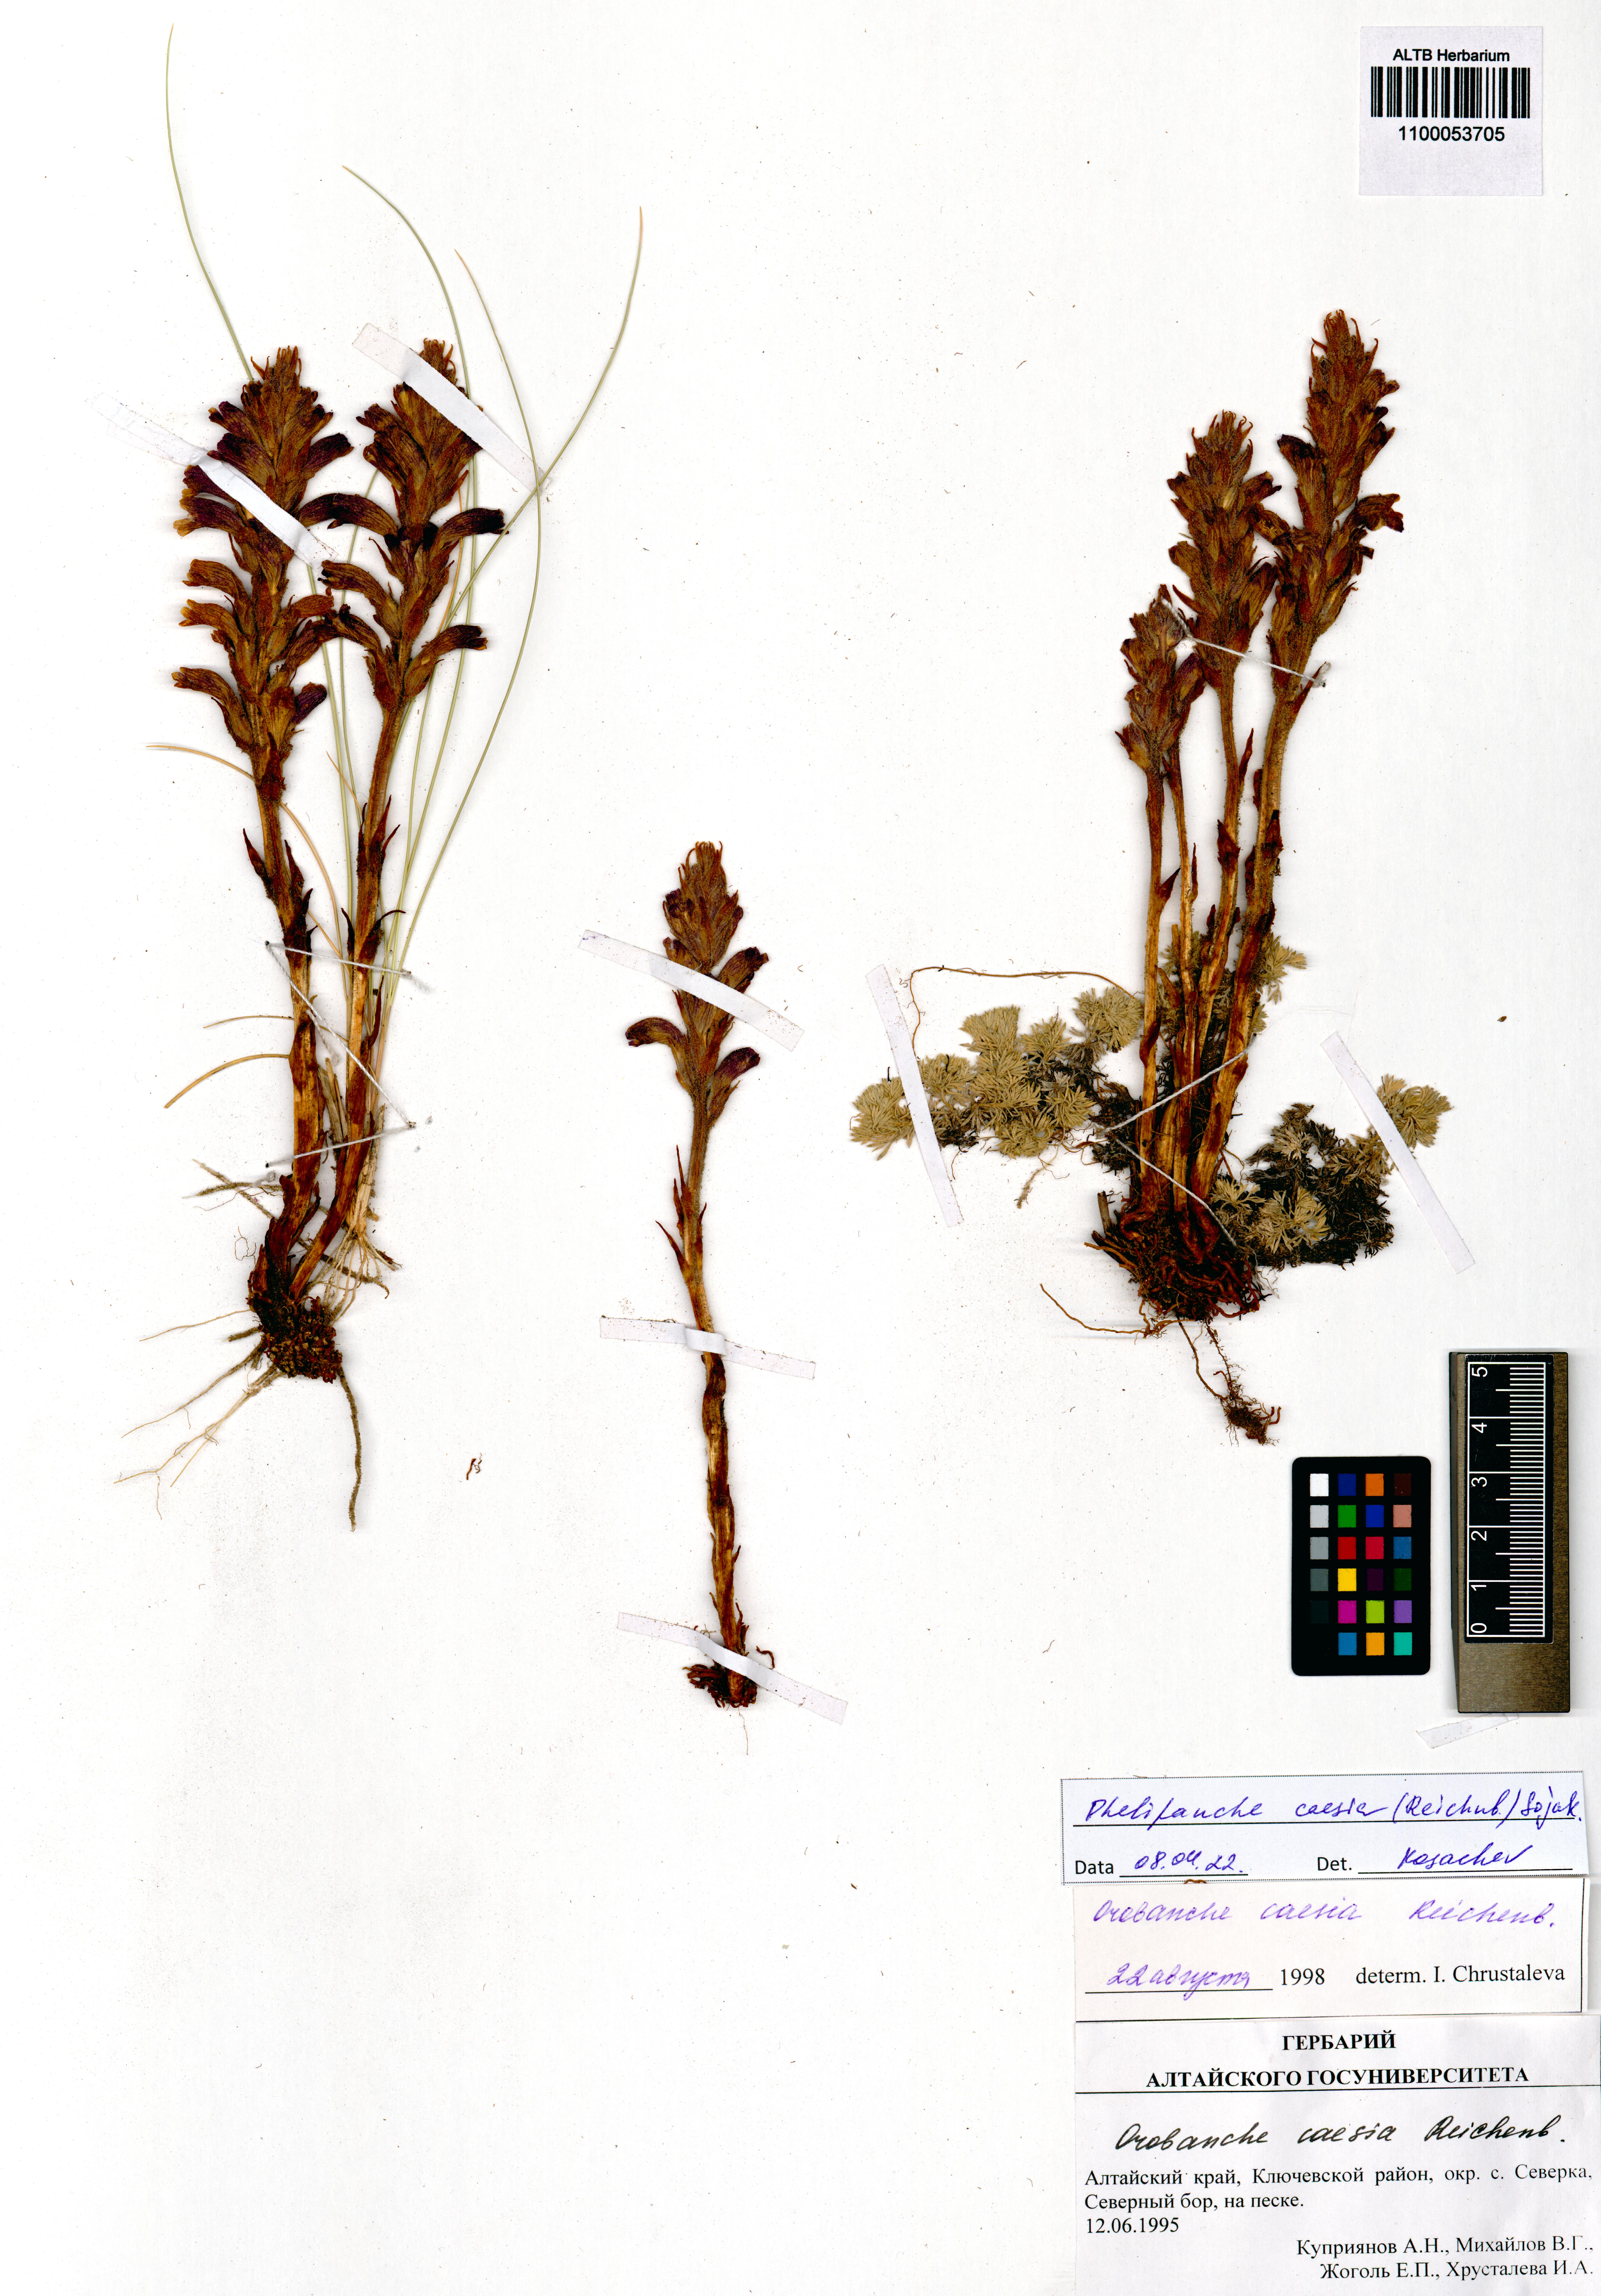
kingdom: Plantae
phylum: Tracheophyta
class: Magnoliopsida
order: Lamiales
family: Orobanchaceae
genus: Phelipanche
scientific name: Phelipanche caesia
